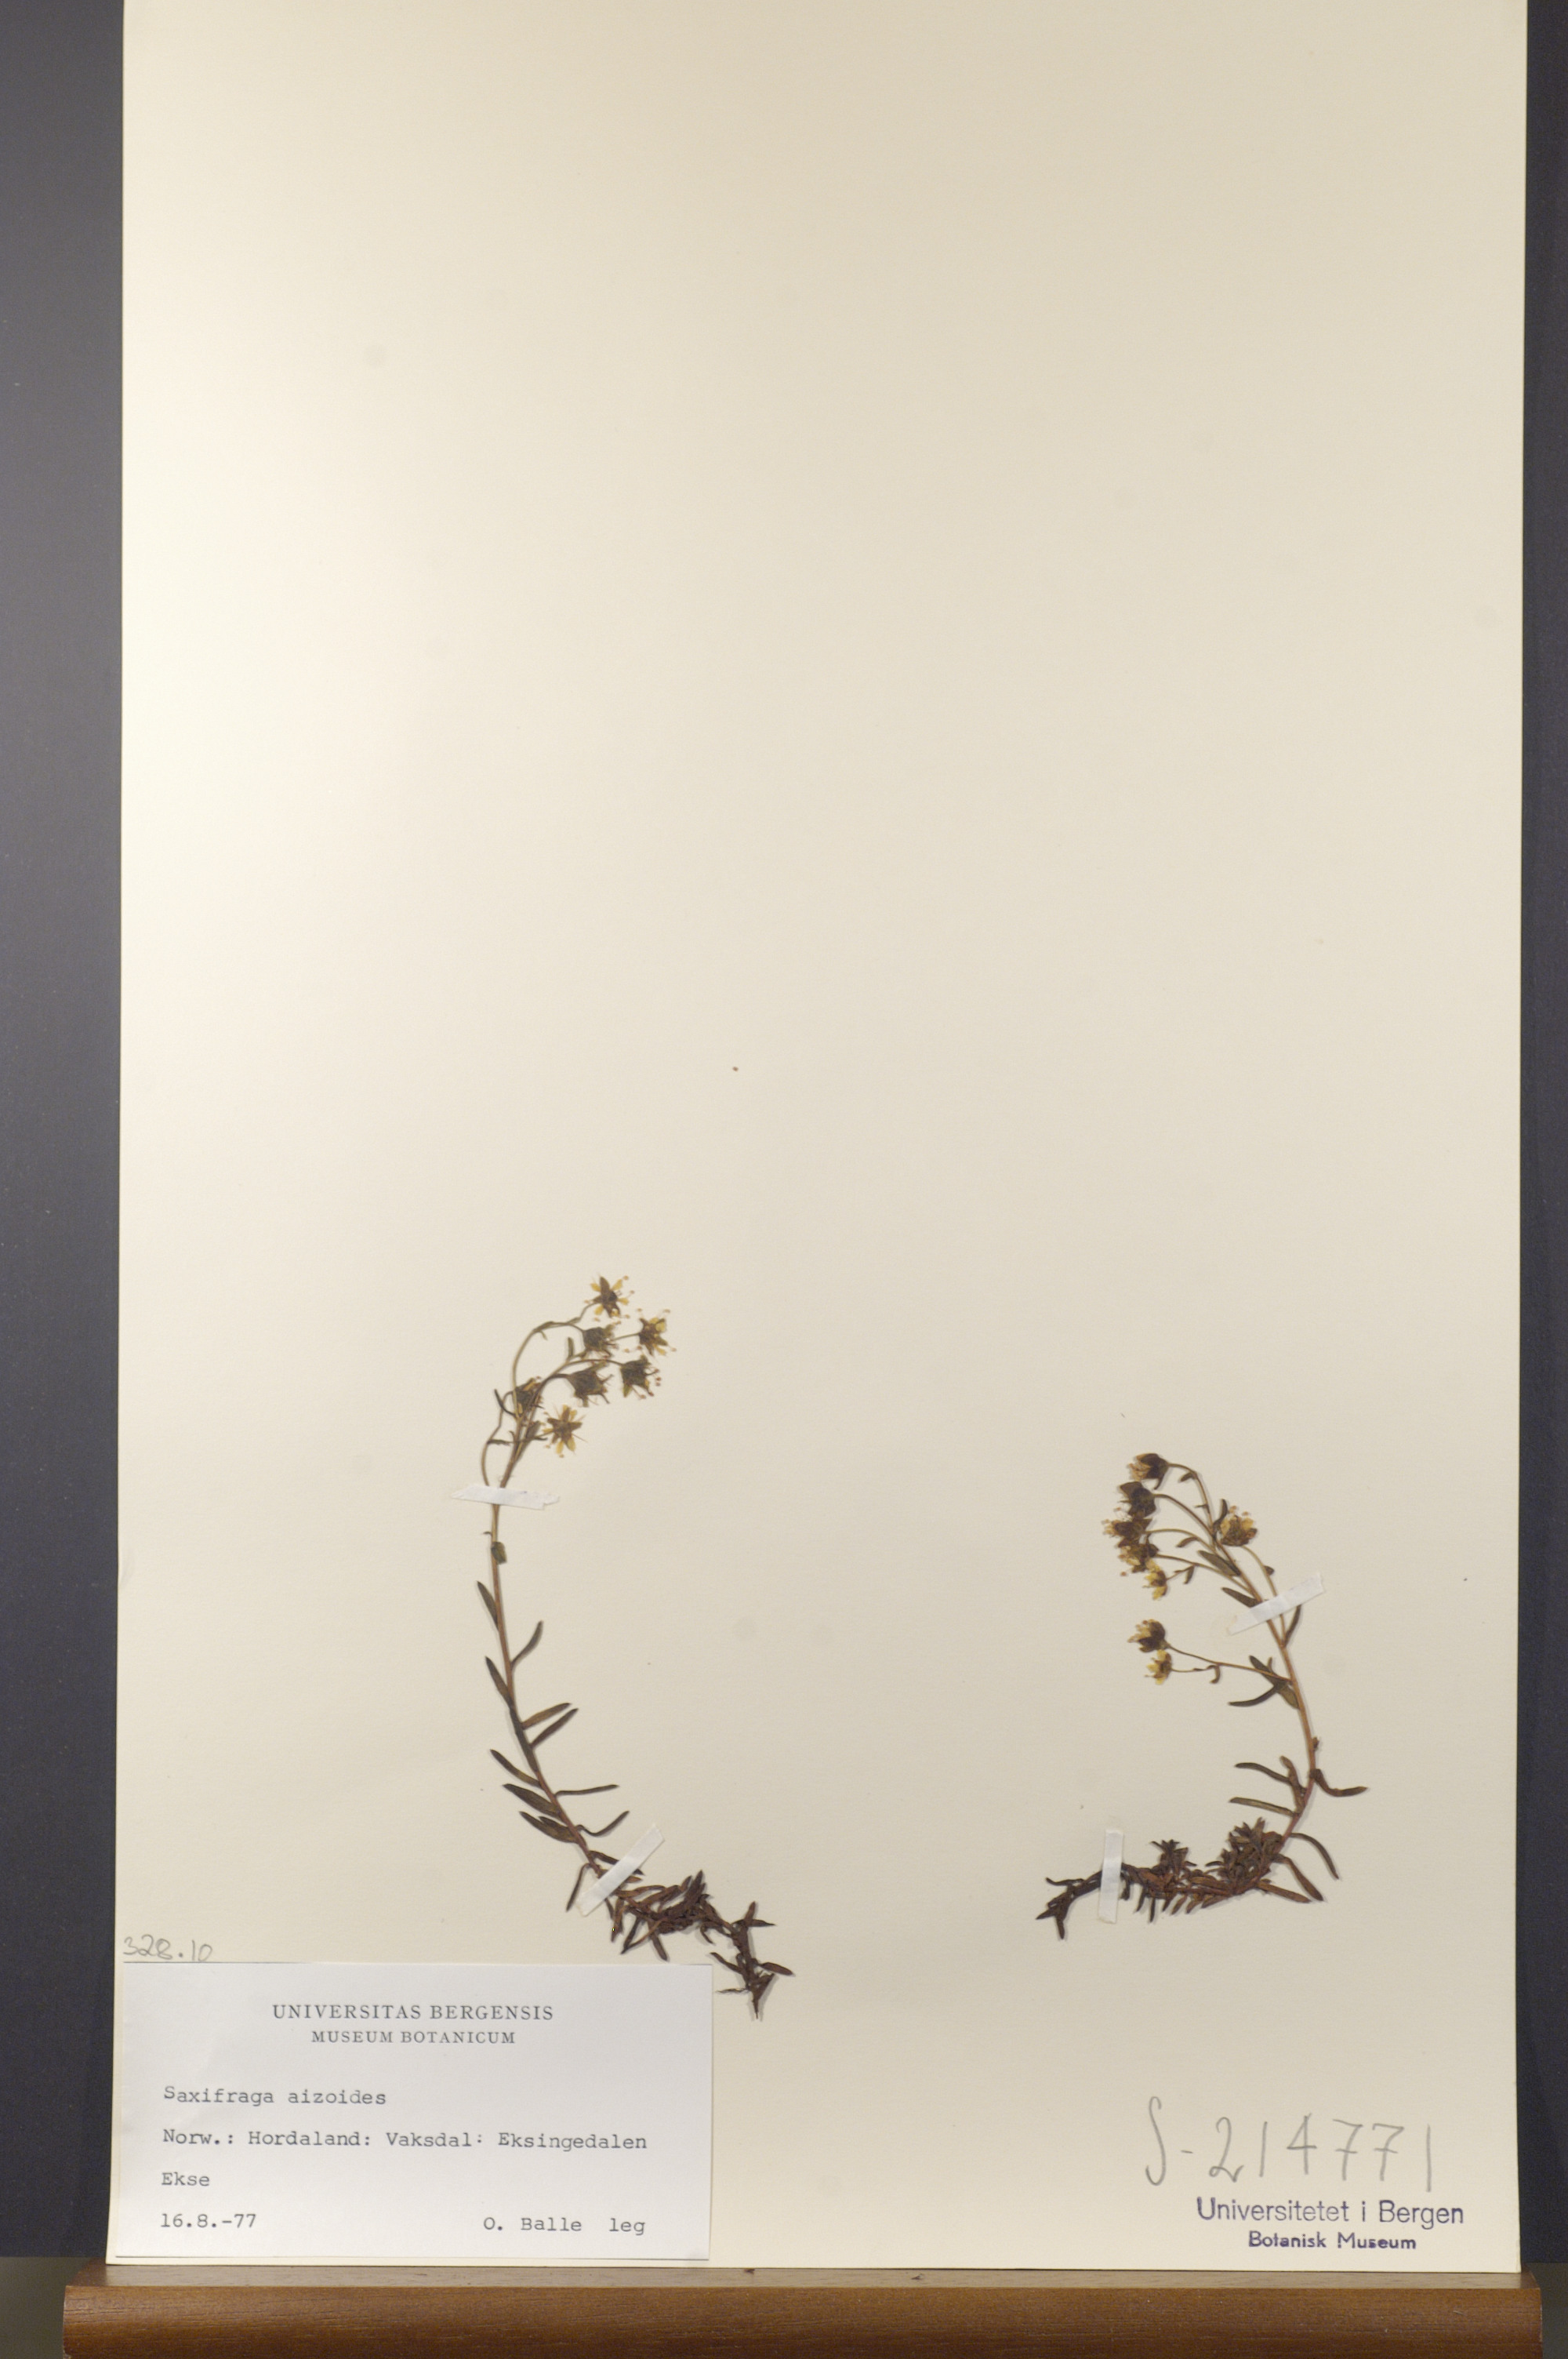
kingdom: Plantae
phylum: Tracheophyta
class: Magnoliopsida
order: Saxifragales
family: Saxifragaceae
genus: Saxifraga
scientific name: Saxifraga aizoides
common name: Yellow mountain saxifrage
